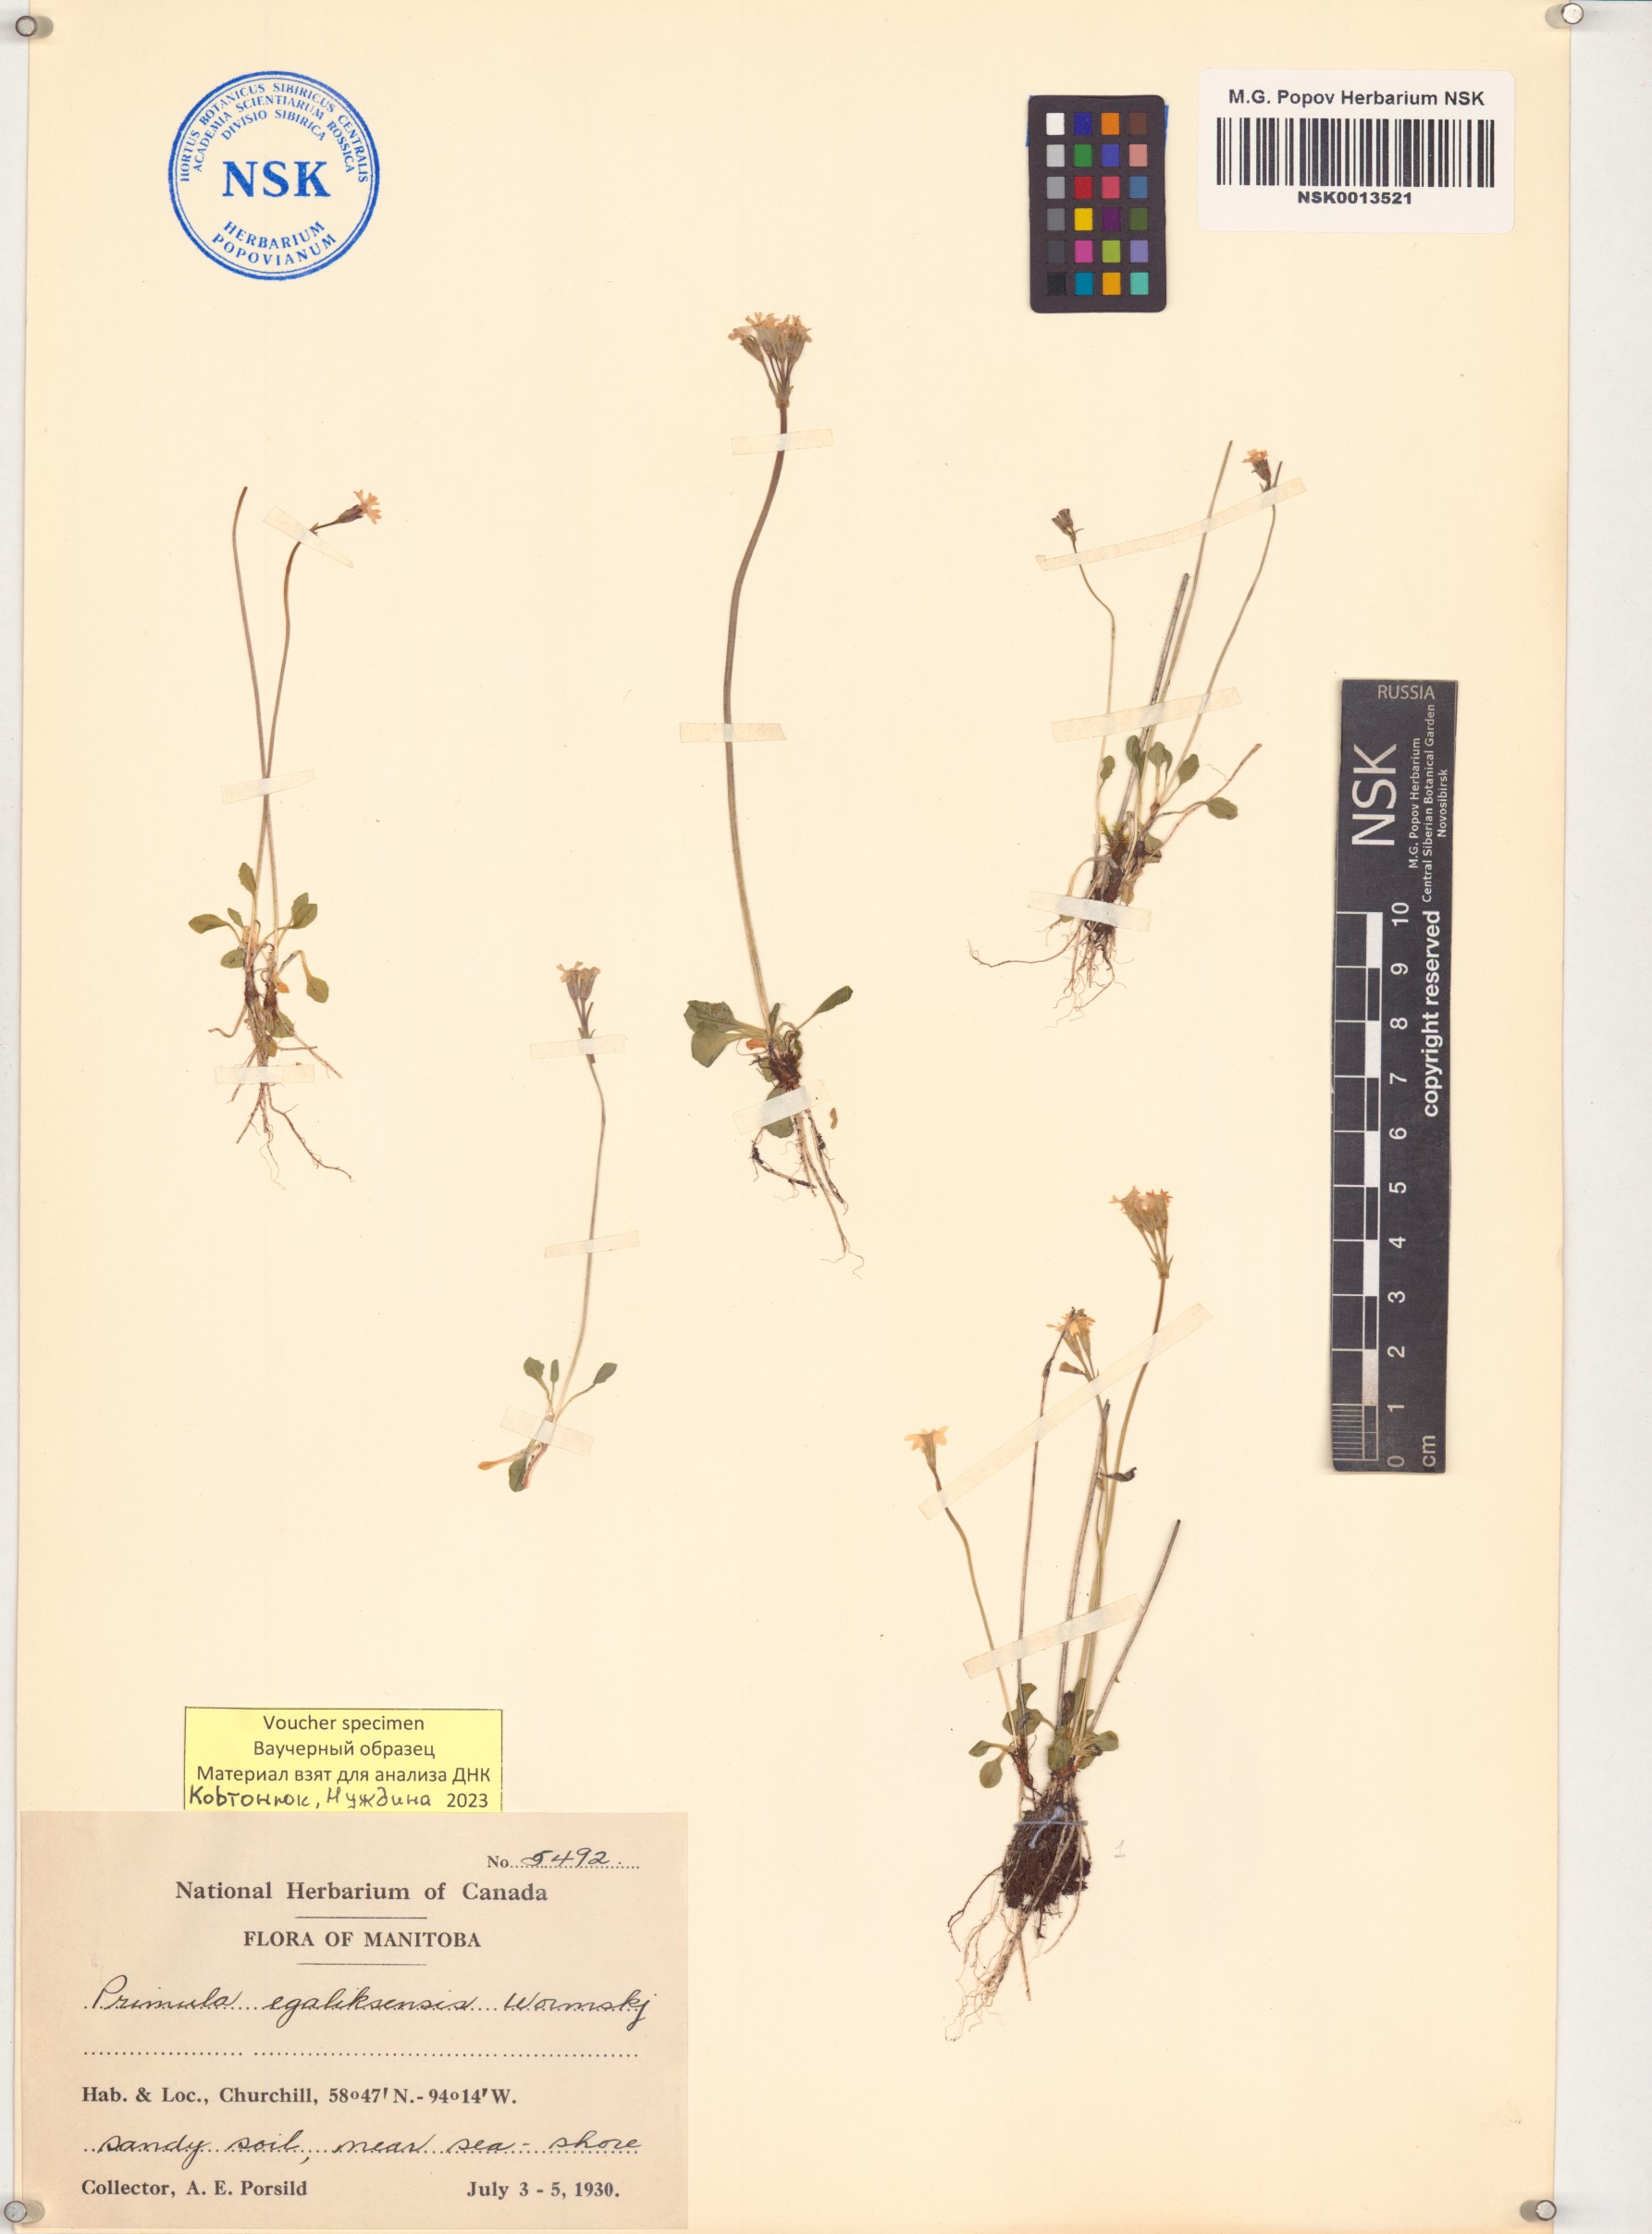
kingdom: Plantae
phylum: Tracheophyta
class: Magnoliopsida
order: Ericales
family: Primulaceae
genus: Primula
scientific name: Primula egaliksensis
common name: Greenland primrose
